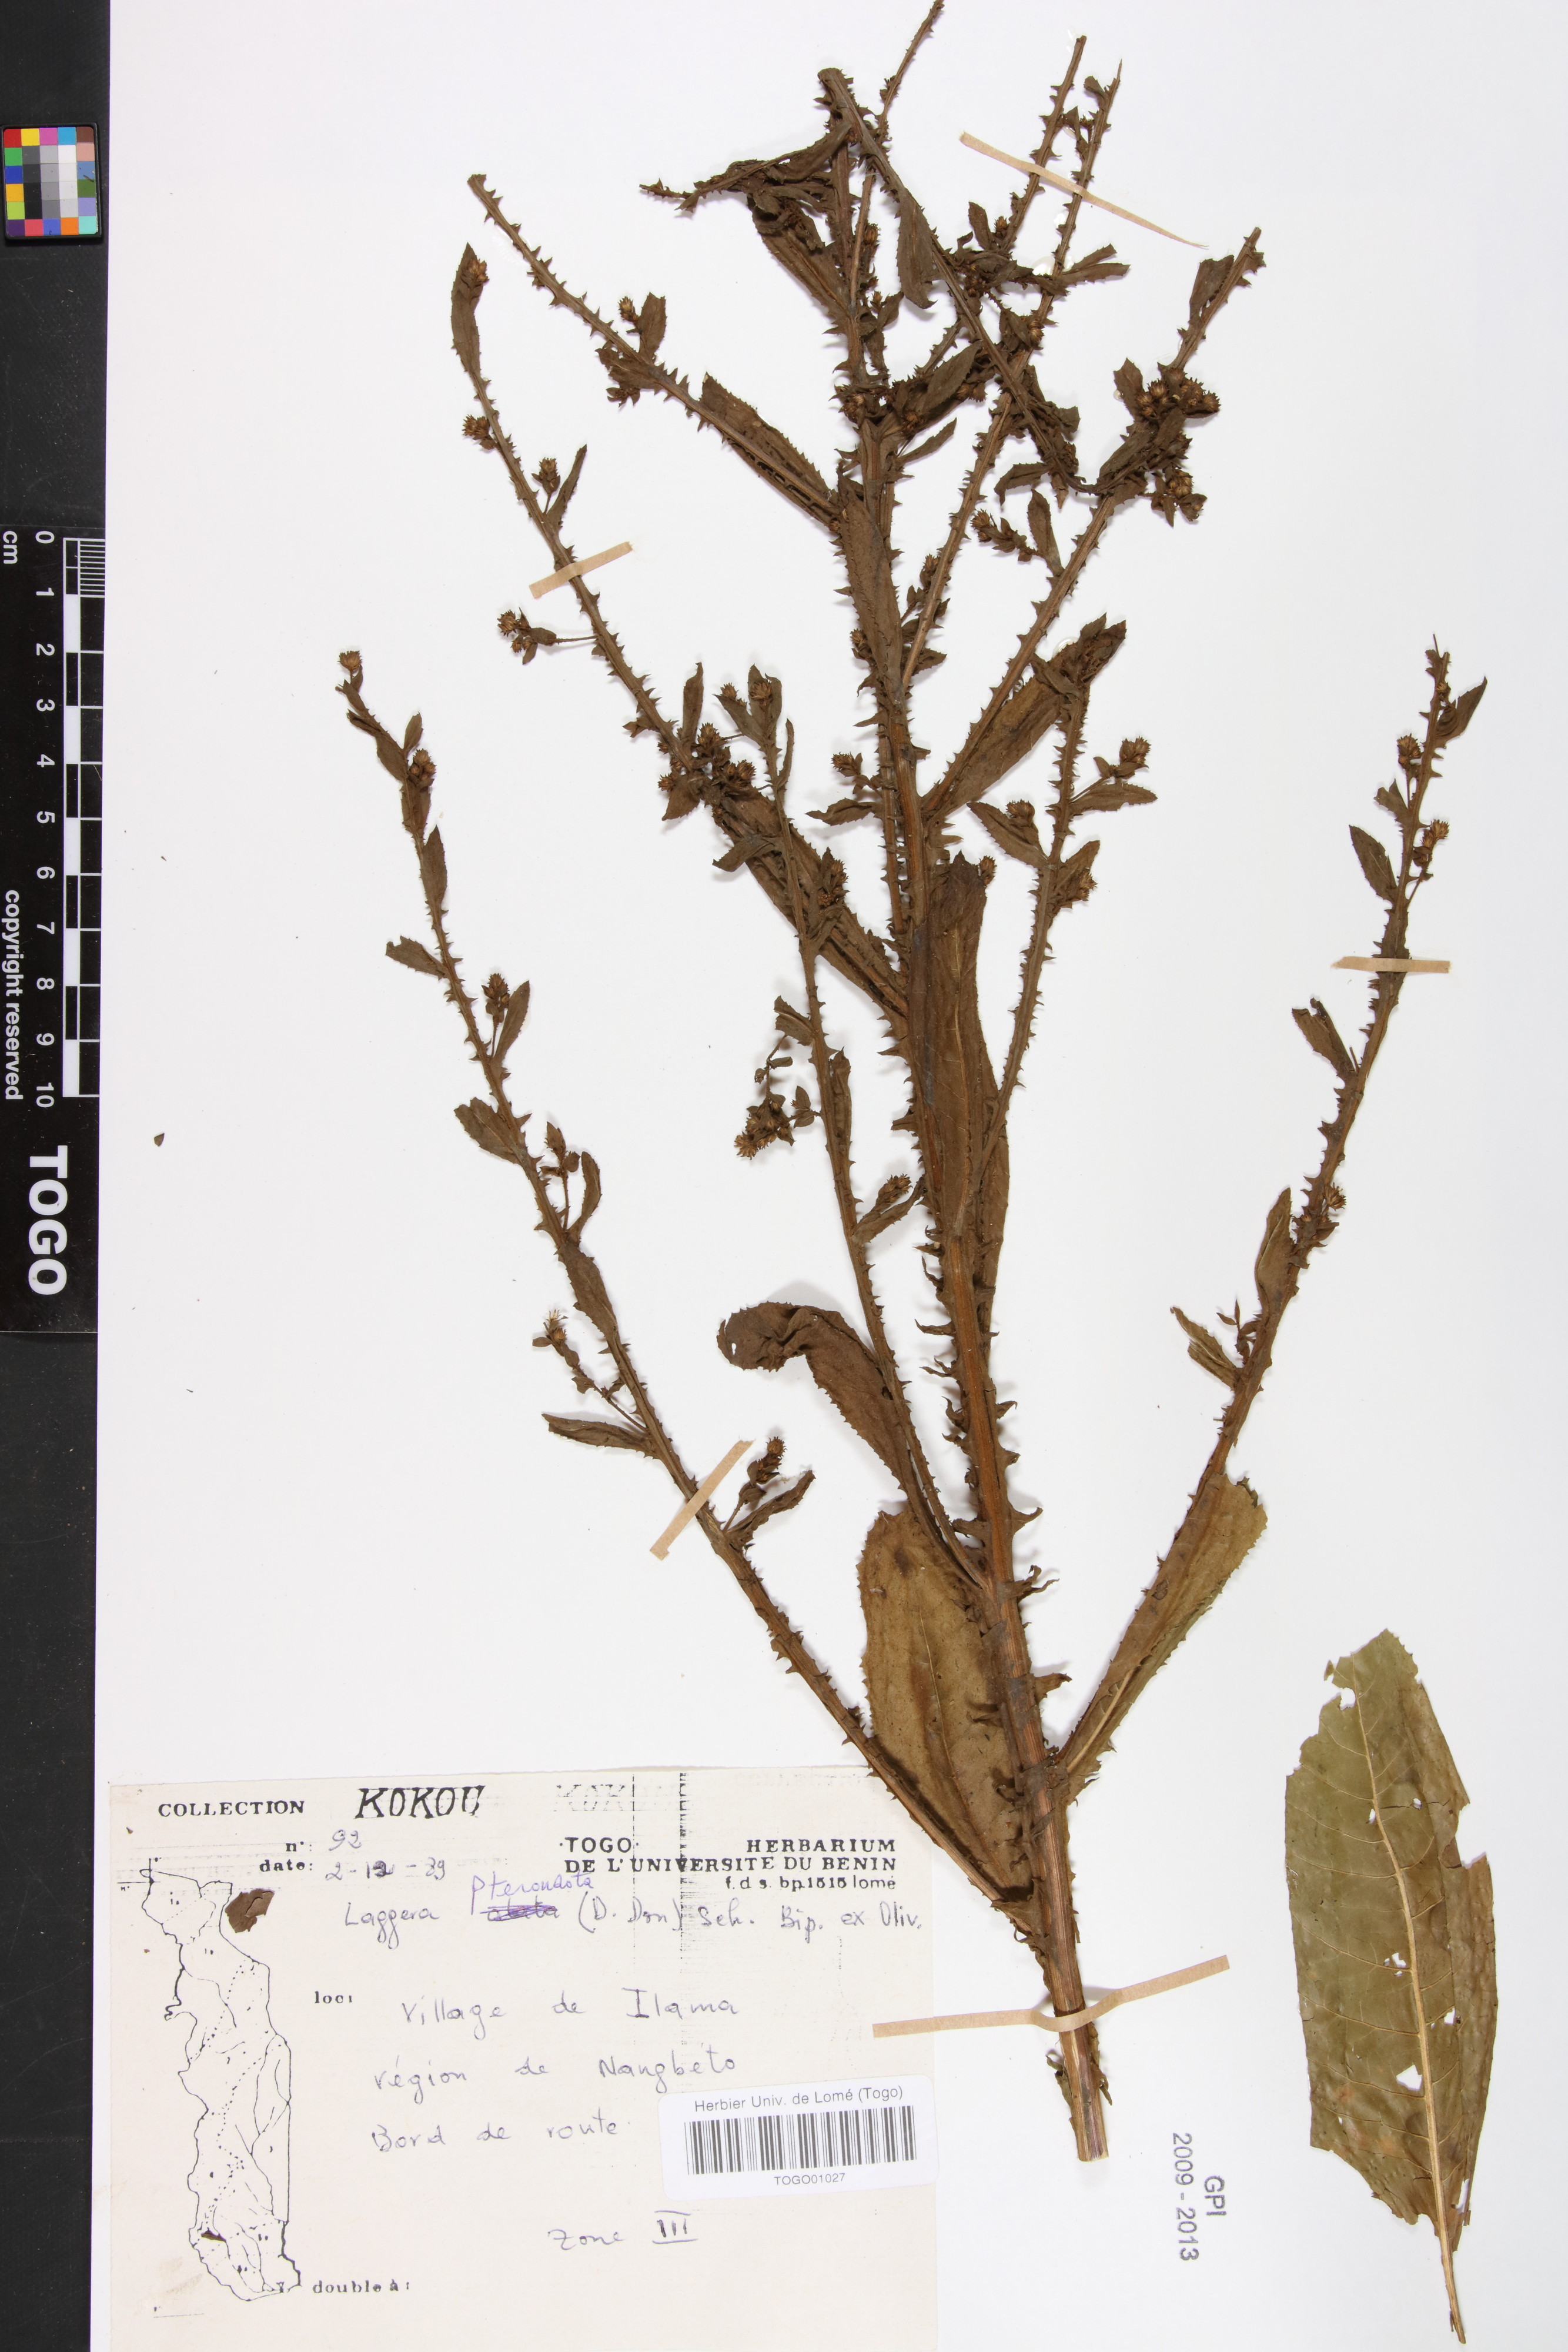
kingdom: Plantae
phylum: Tracheophyta
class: Magnoliopsida
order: Asterales
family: Asteraceae
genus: Laggera
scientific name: Laggera alata
